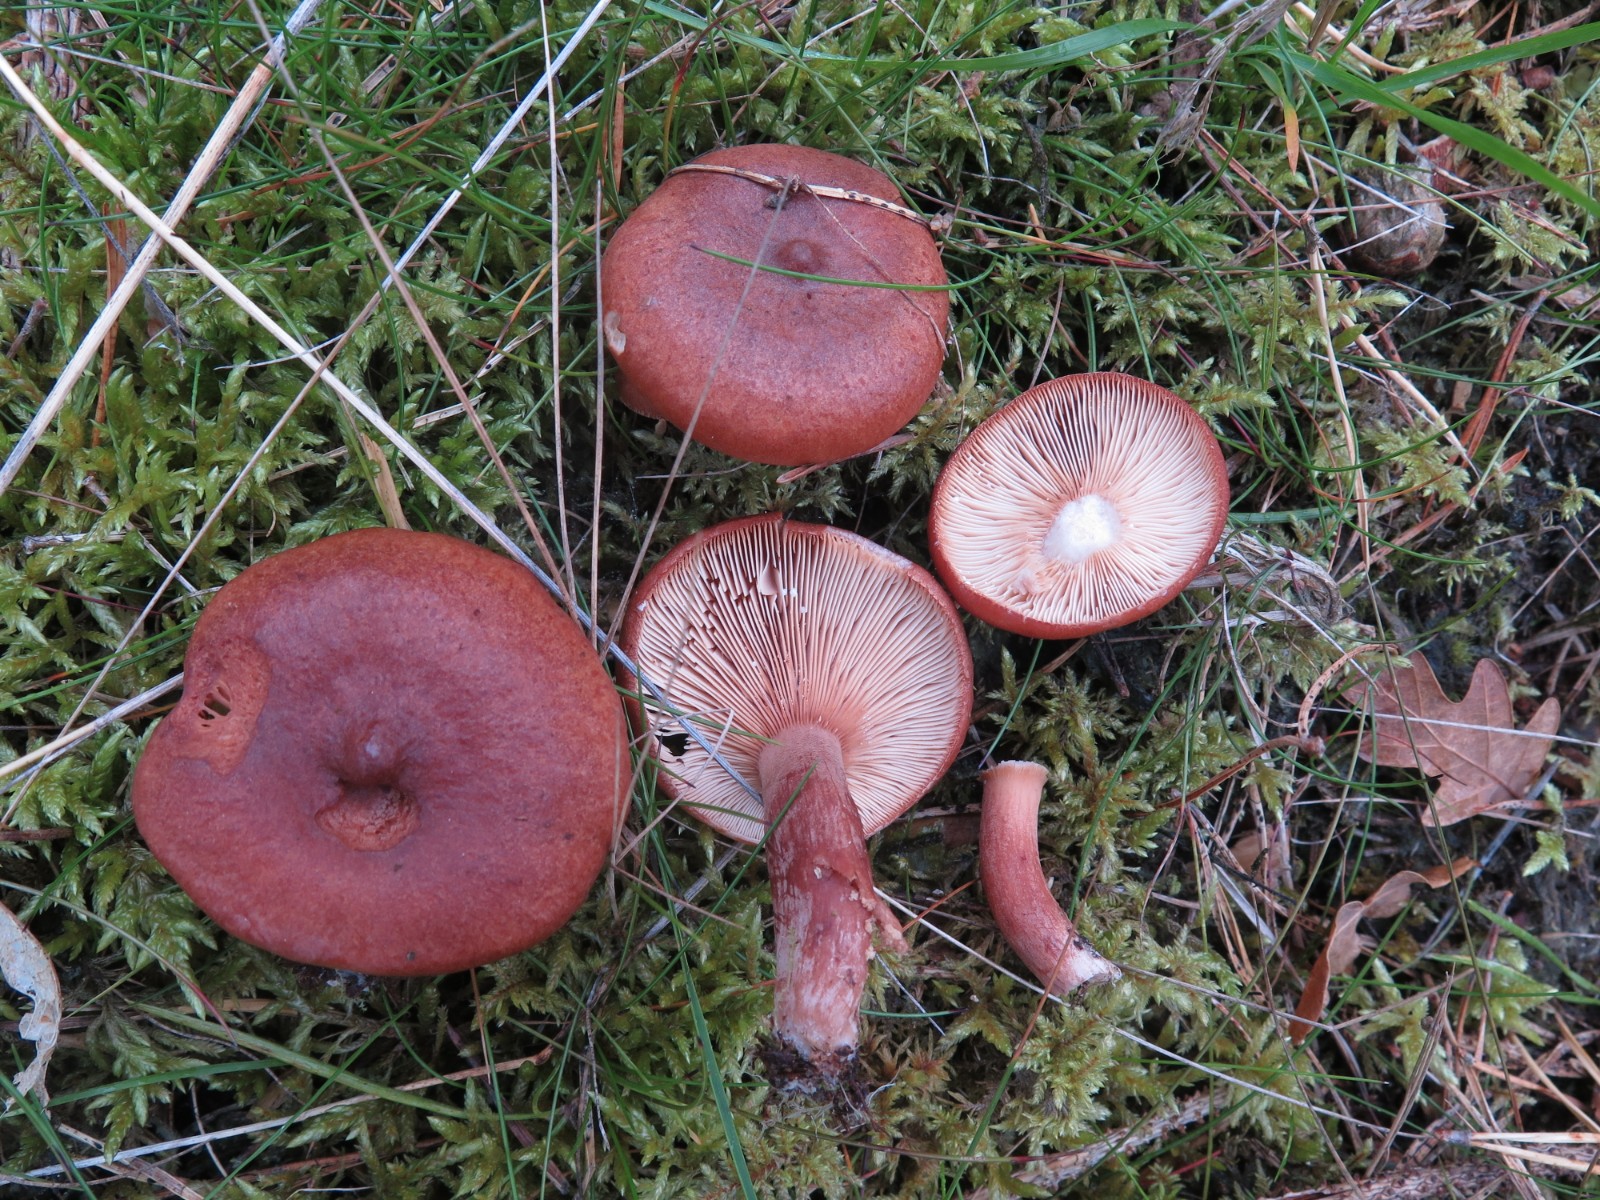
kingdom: Fungi
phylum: Basidiomycota
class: Agaricomycetes
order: Russulales
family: Russulaceae
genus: Lactarius
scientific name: Lactarius rufus
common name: rødbrun mælkehat
